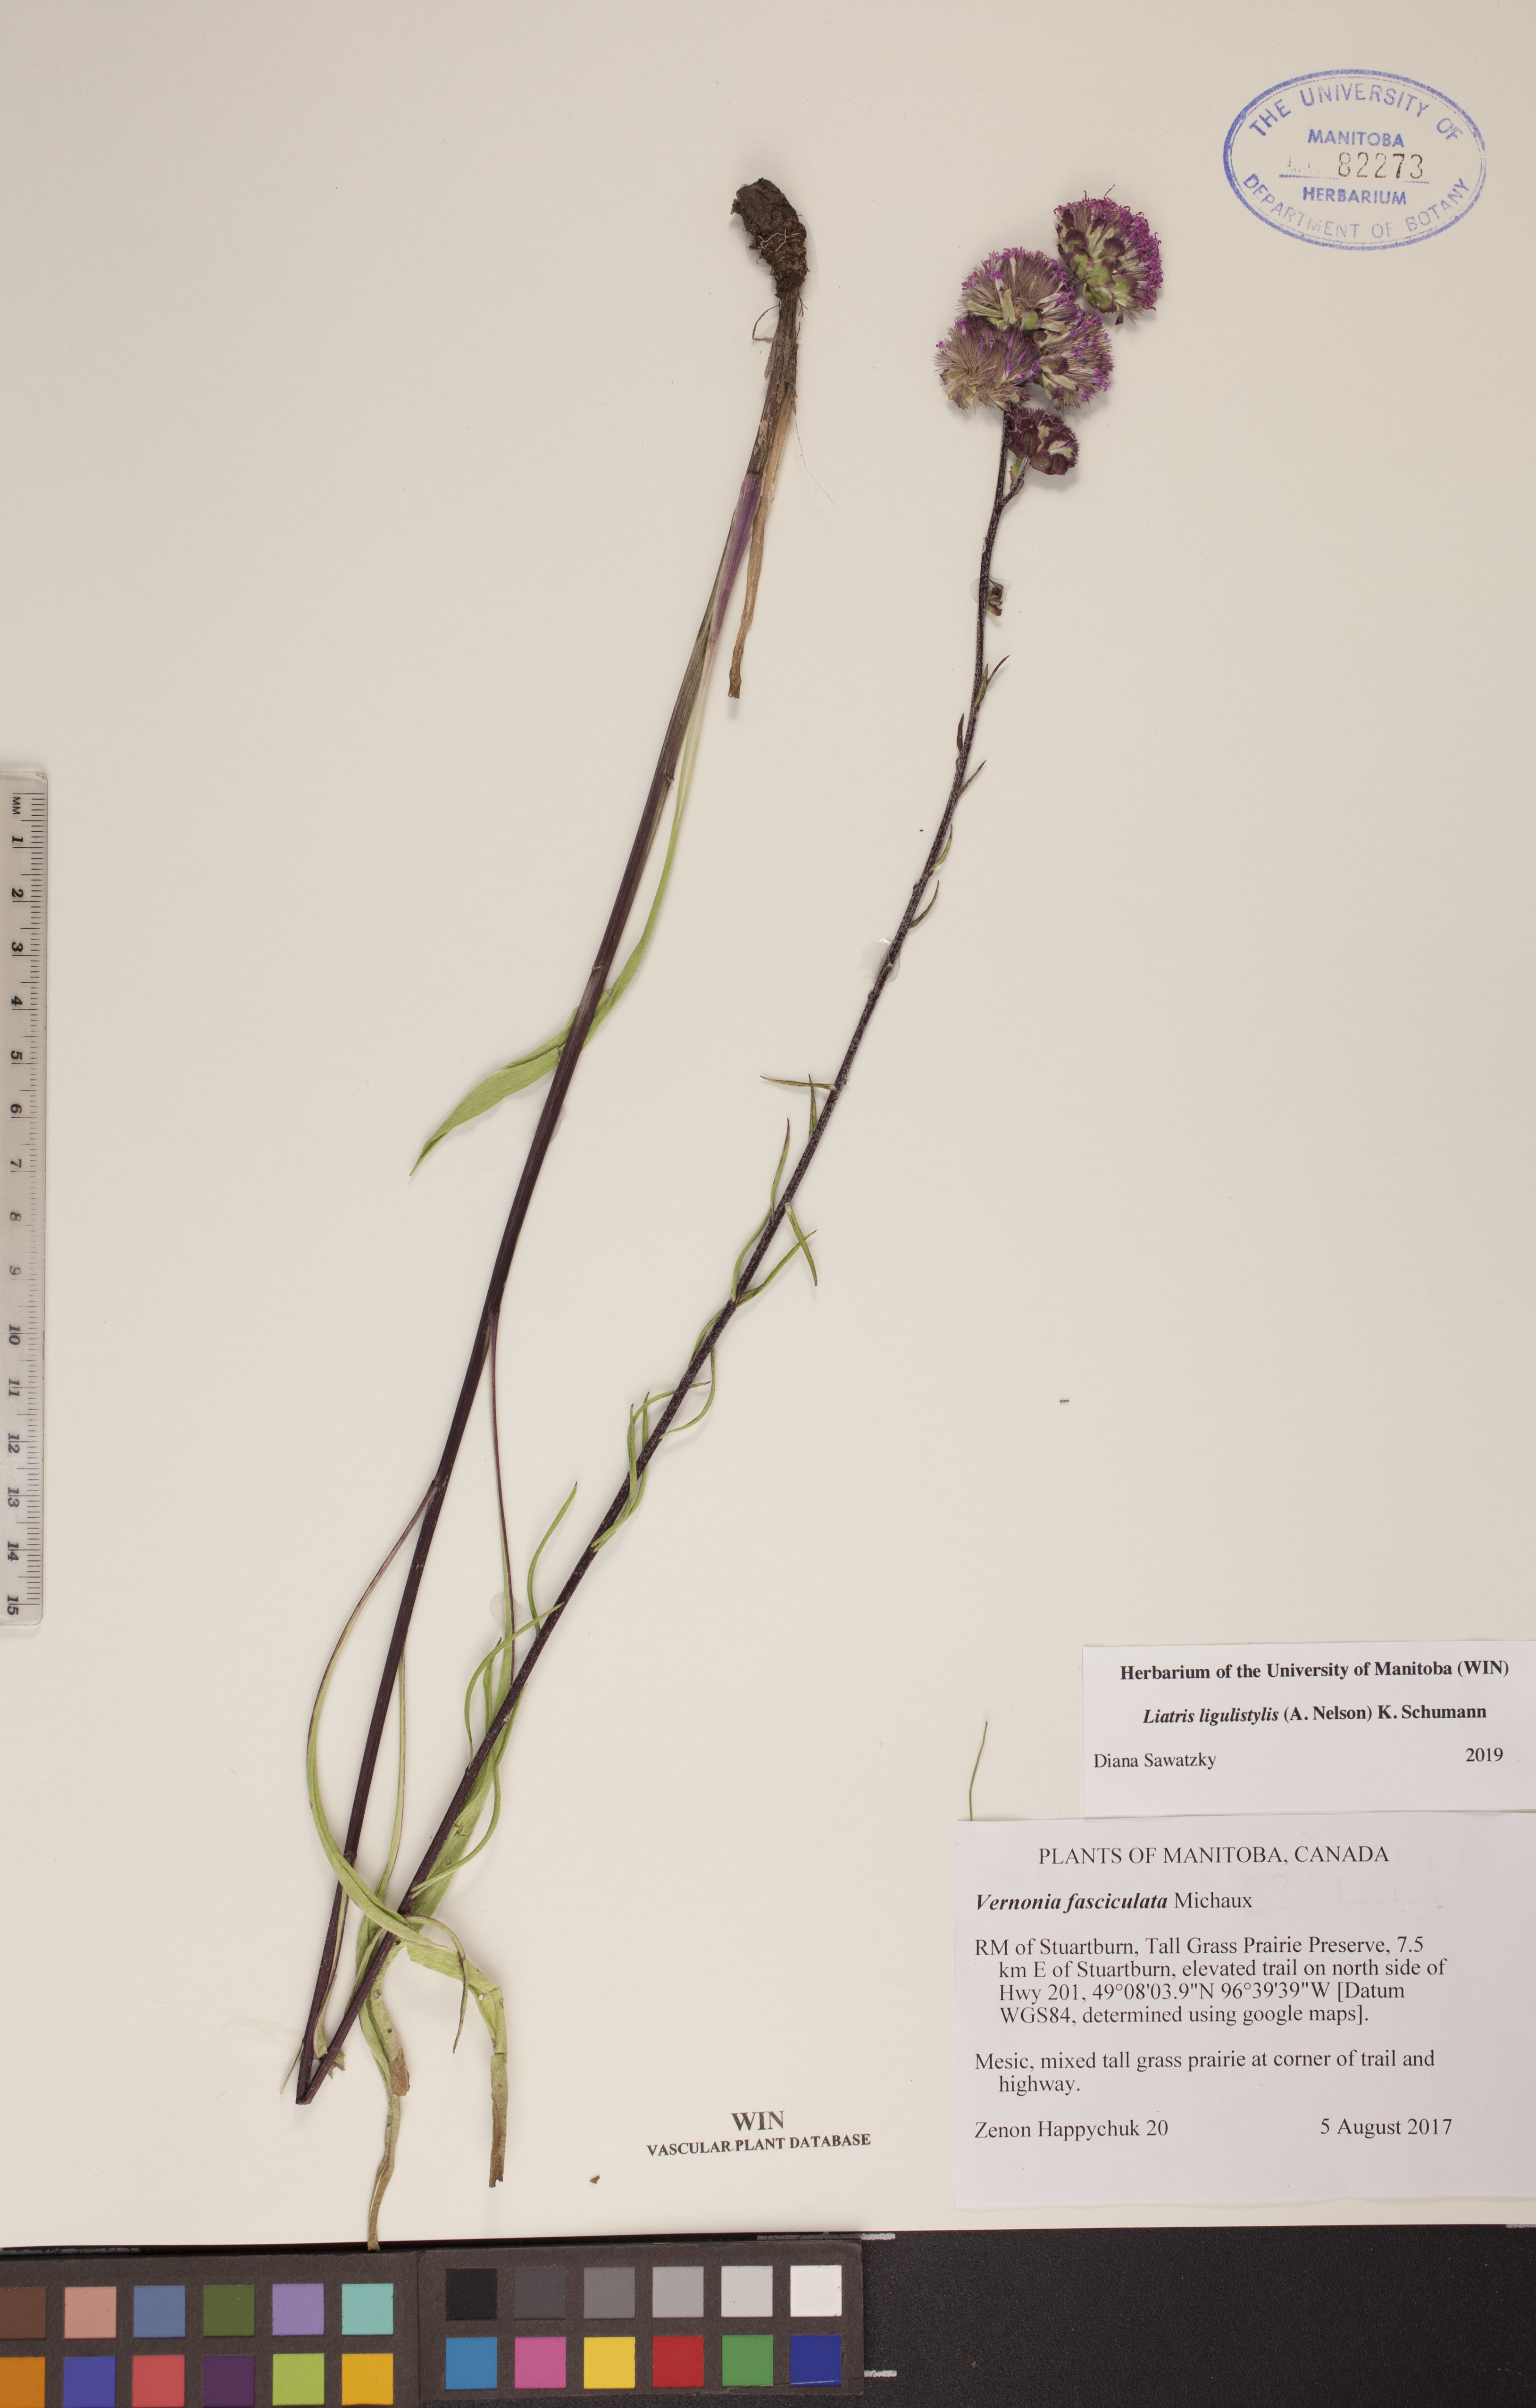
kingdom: Plantae
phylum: Tracheophyta
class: Magnoliopsida
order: Asterales
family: Asteraceae
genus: Liatris
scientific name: Liatris ligulistylis
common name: Northern plains gayfeather
